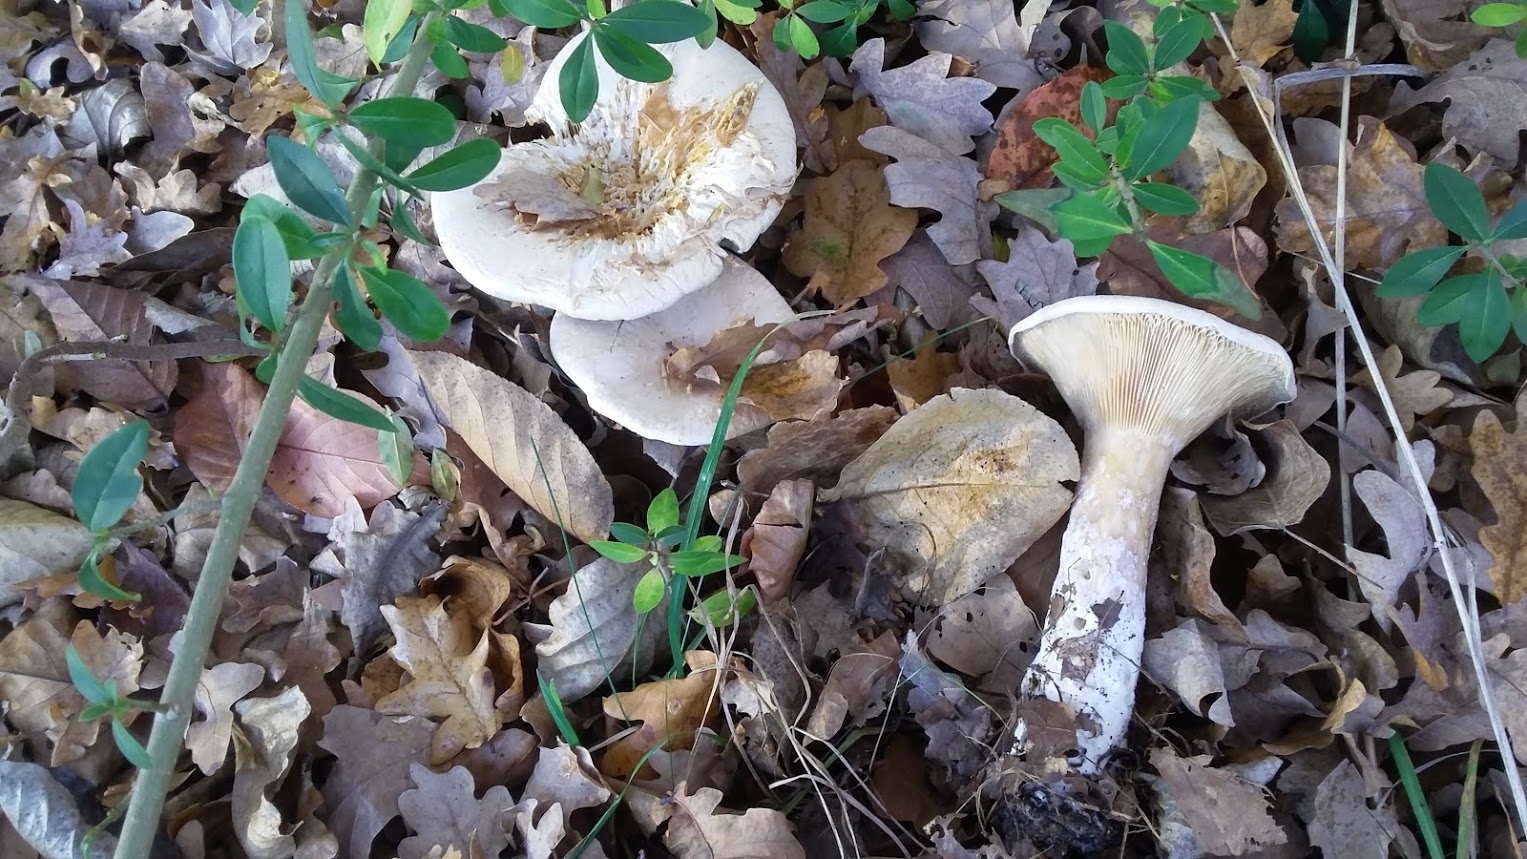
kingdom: Fungi
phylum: Basidiomycota
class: Agaricomycetes
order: Agaricales
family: Tricholomataceae
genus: Infundibulicybe
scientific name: Infundibulicybe geotropa
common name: stor tragthat
